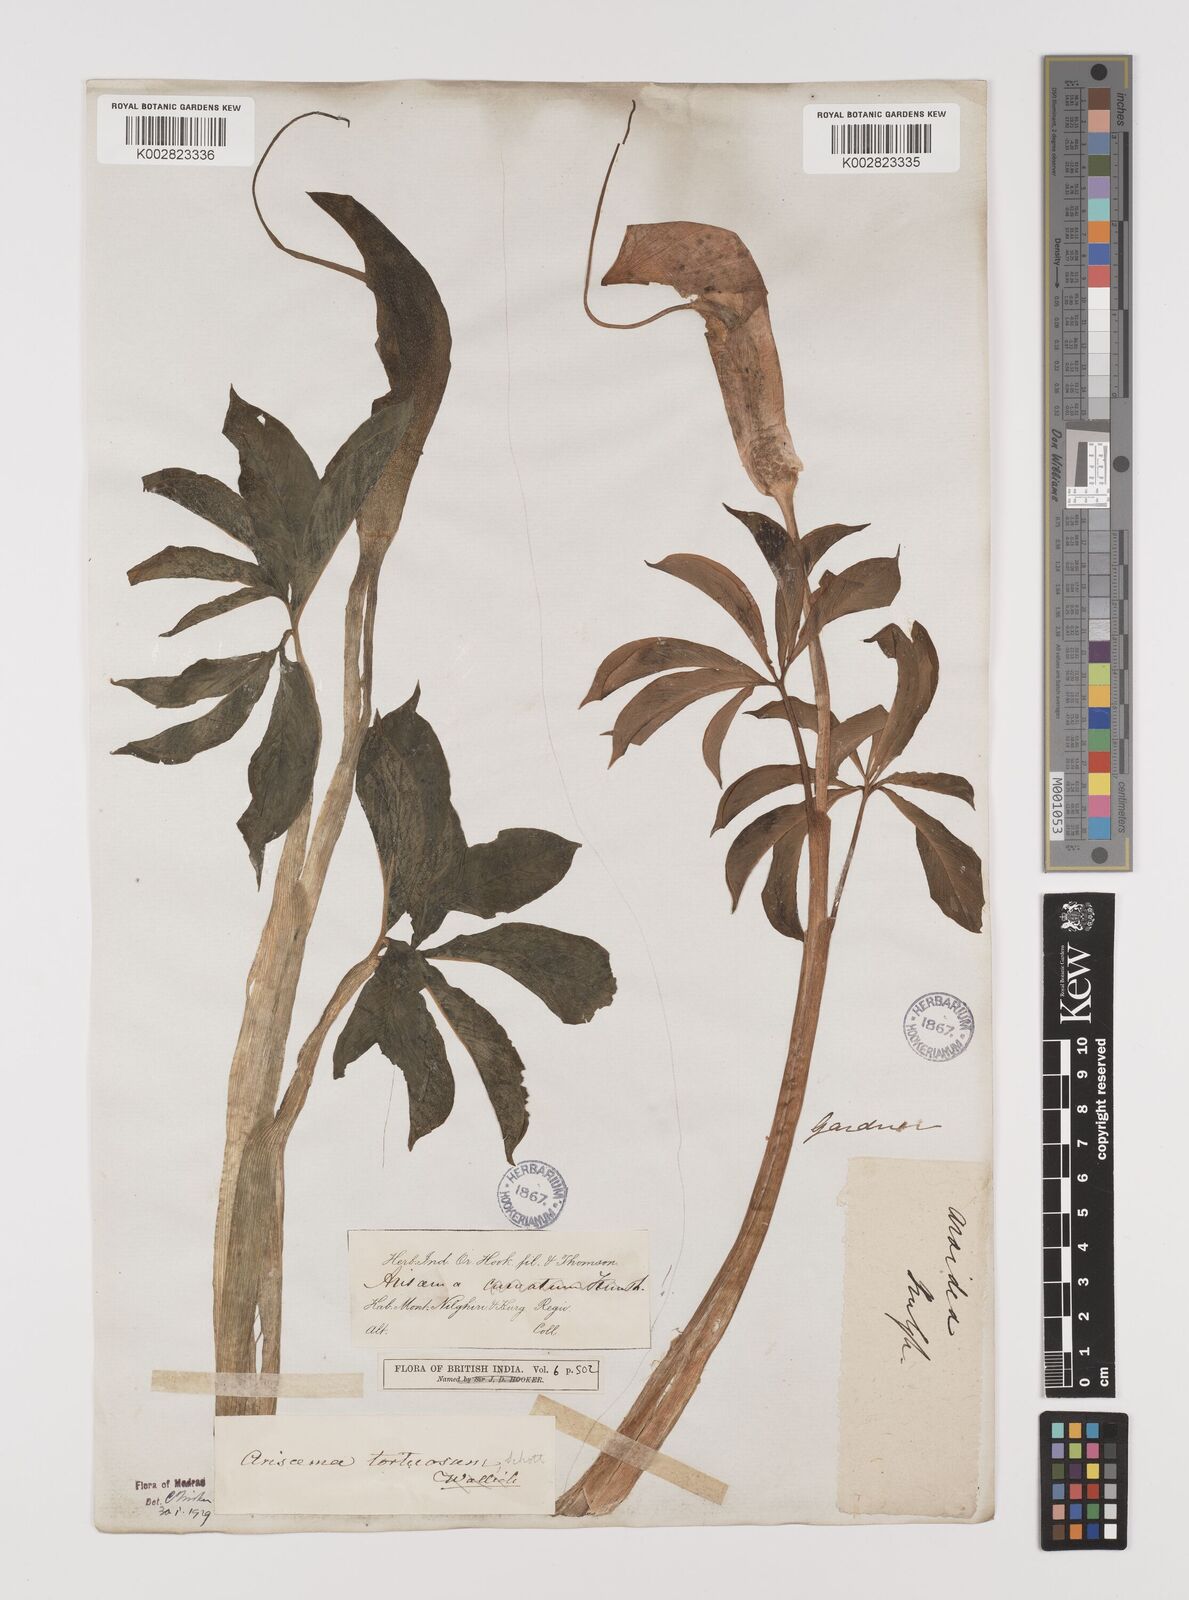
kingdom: Plantae
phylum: Tracheophyta
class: Liliopsida
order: Alismatales
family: Araceae
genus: Arisaema
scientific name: Arisaema tortuosum
